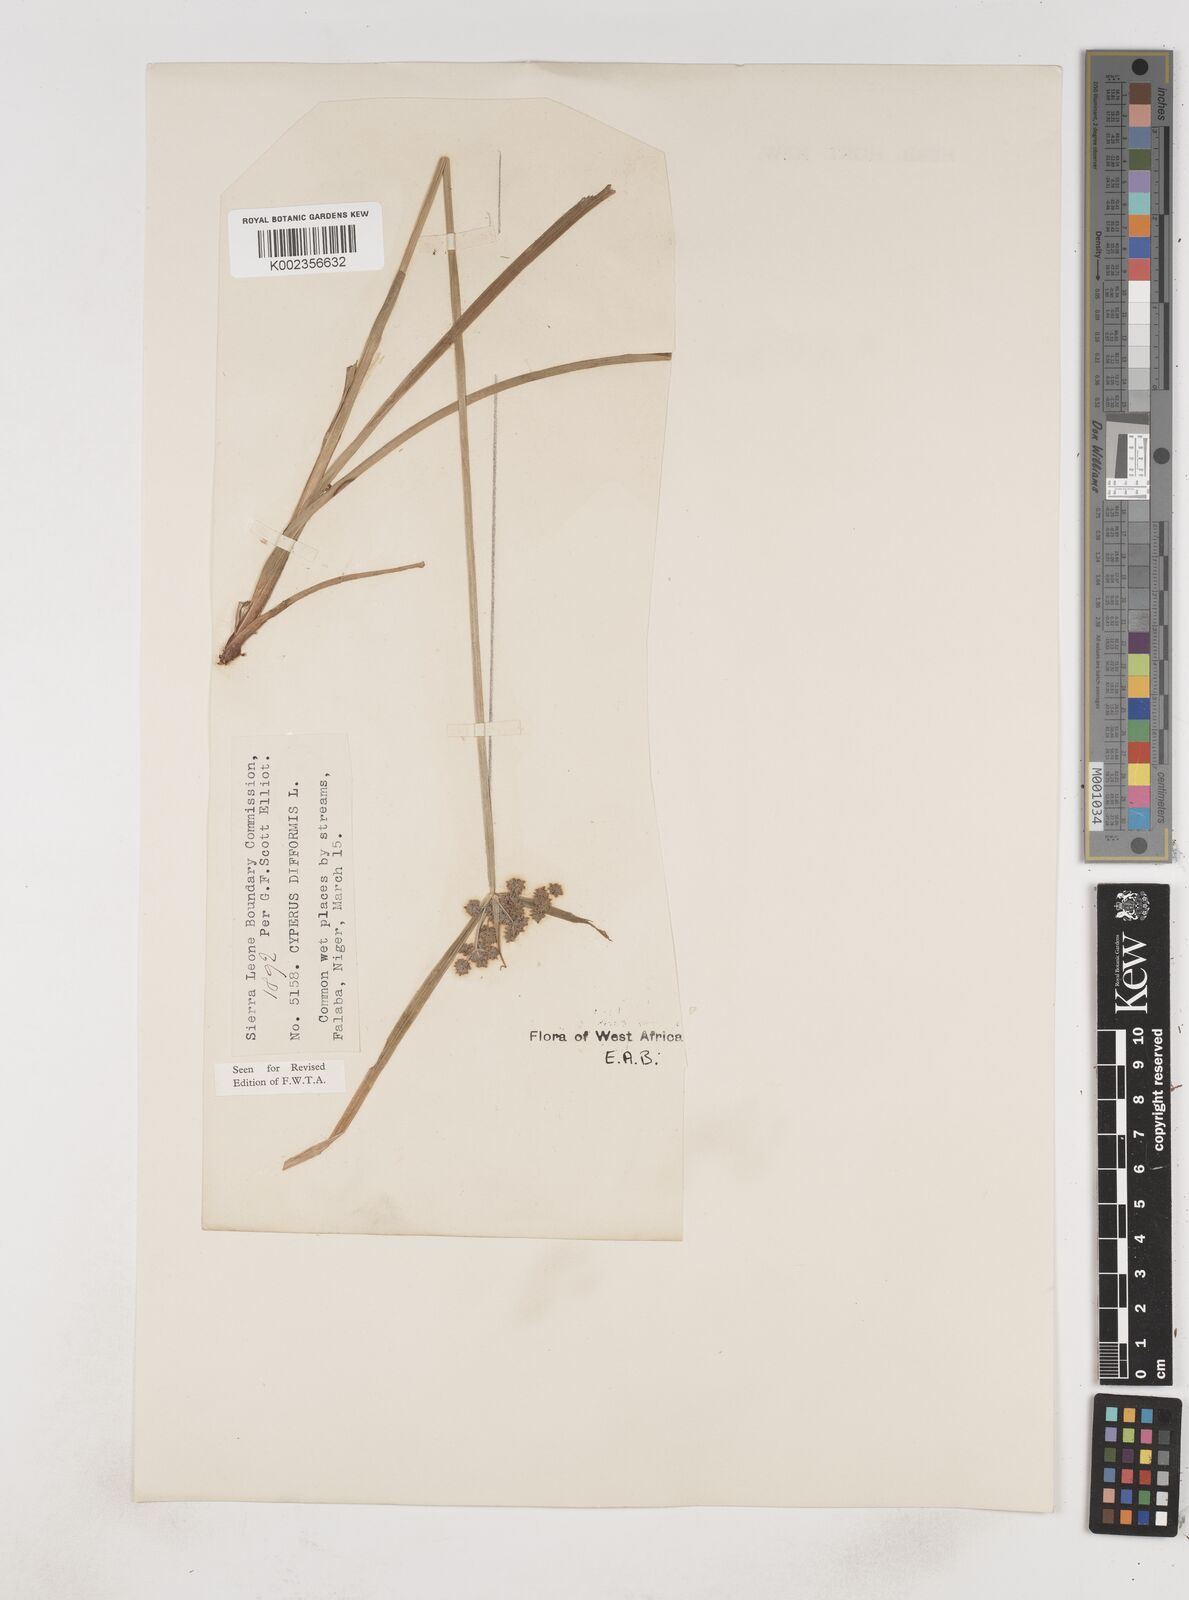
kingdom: Plantae
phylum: Tracheophyta
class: Liliopsida
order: Poales
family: Cyperaceae
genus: Cyperus
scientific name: Cyperus difformis
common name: Variable flatsedge
